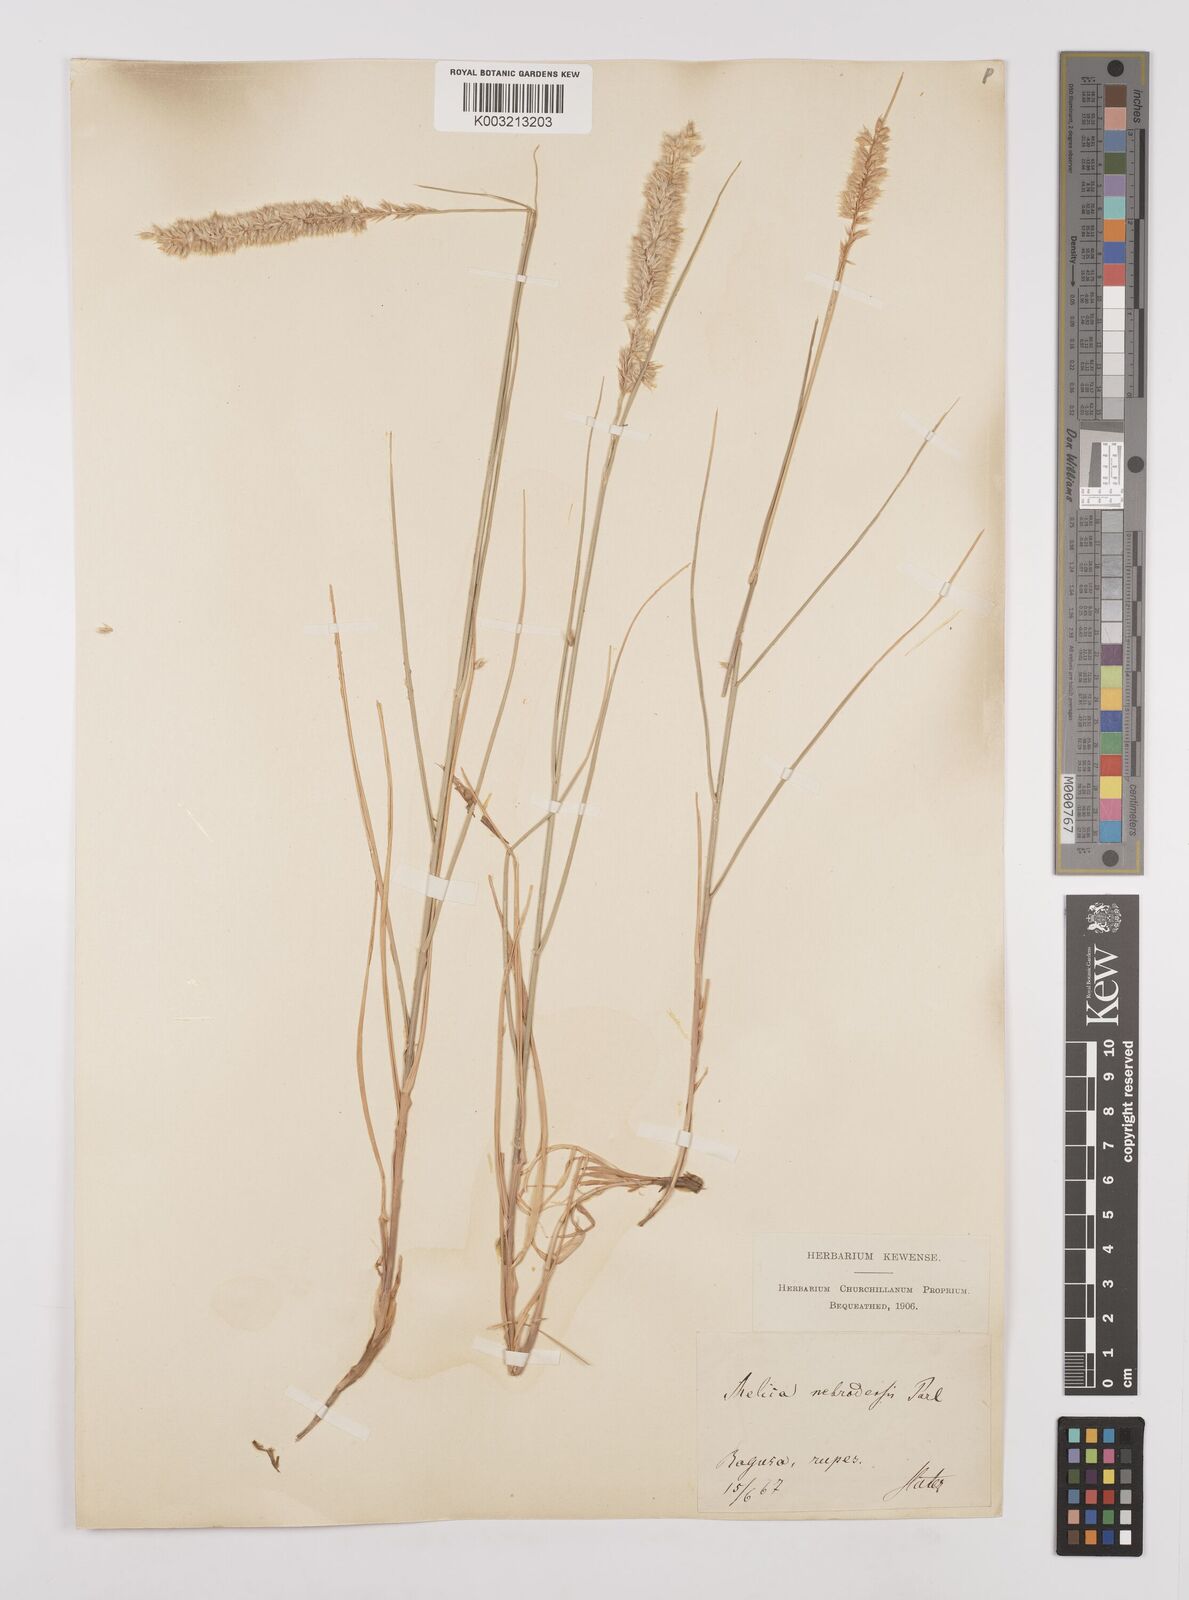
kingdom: Plantae
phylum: Tracheophyta
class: Liliopsida
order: Poales
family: Poaceae
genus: Melica
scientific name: Melica ciliata
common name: Hairy melicgrass
